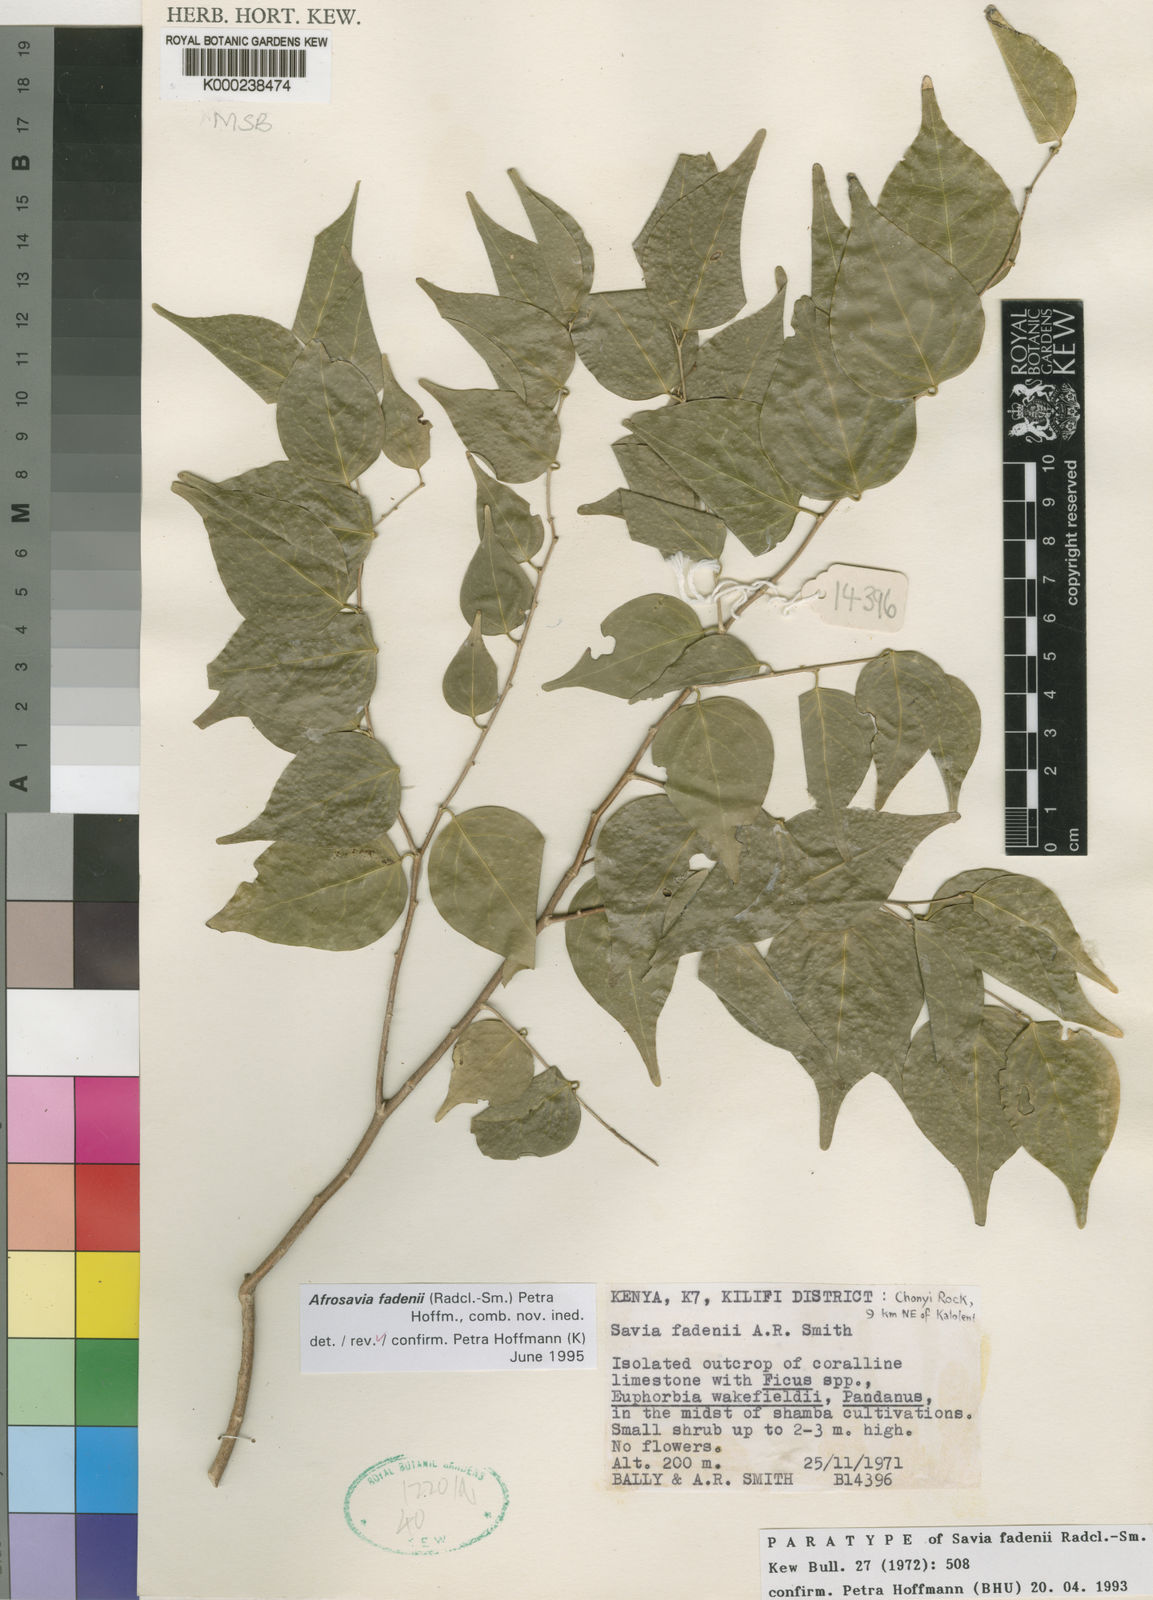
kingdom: Plantae
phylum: Tracheophyta
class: Magnoliopsida
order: Malpighiales
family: Phyllanthaceae
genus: Wielandia
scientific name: Wielandia fadenii
